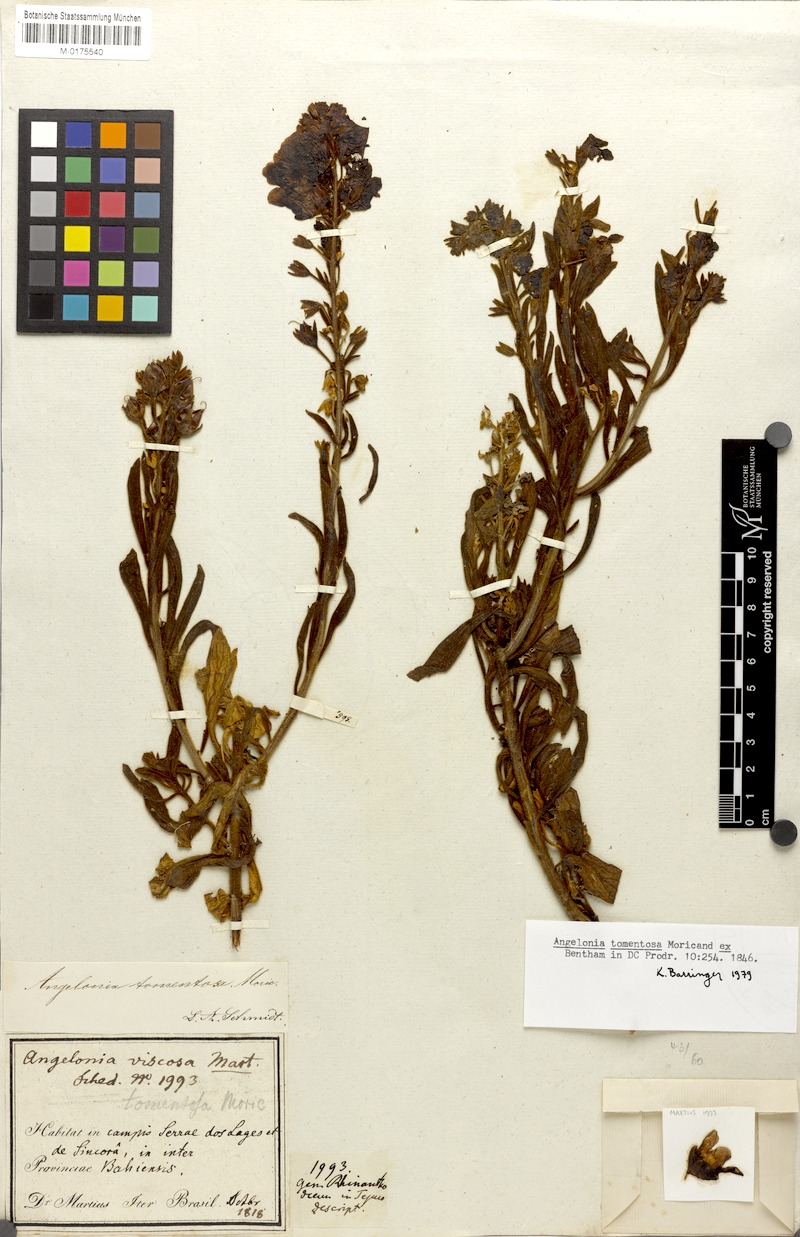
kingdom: Plantae
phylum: Tracheophyta
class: Magnoliopsida
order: Lamiales
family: Plantaginaceae
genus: Angelonia
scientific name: Angelonia tomentosa
